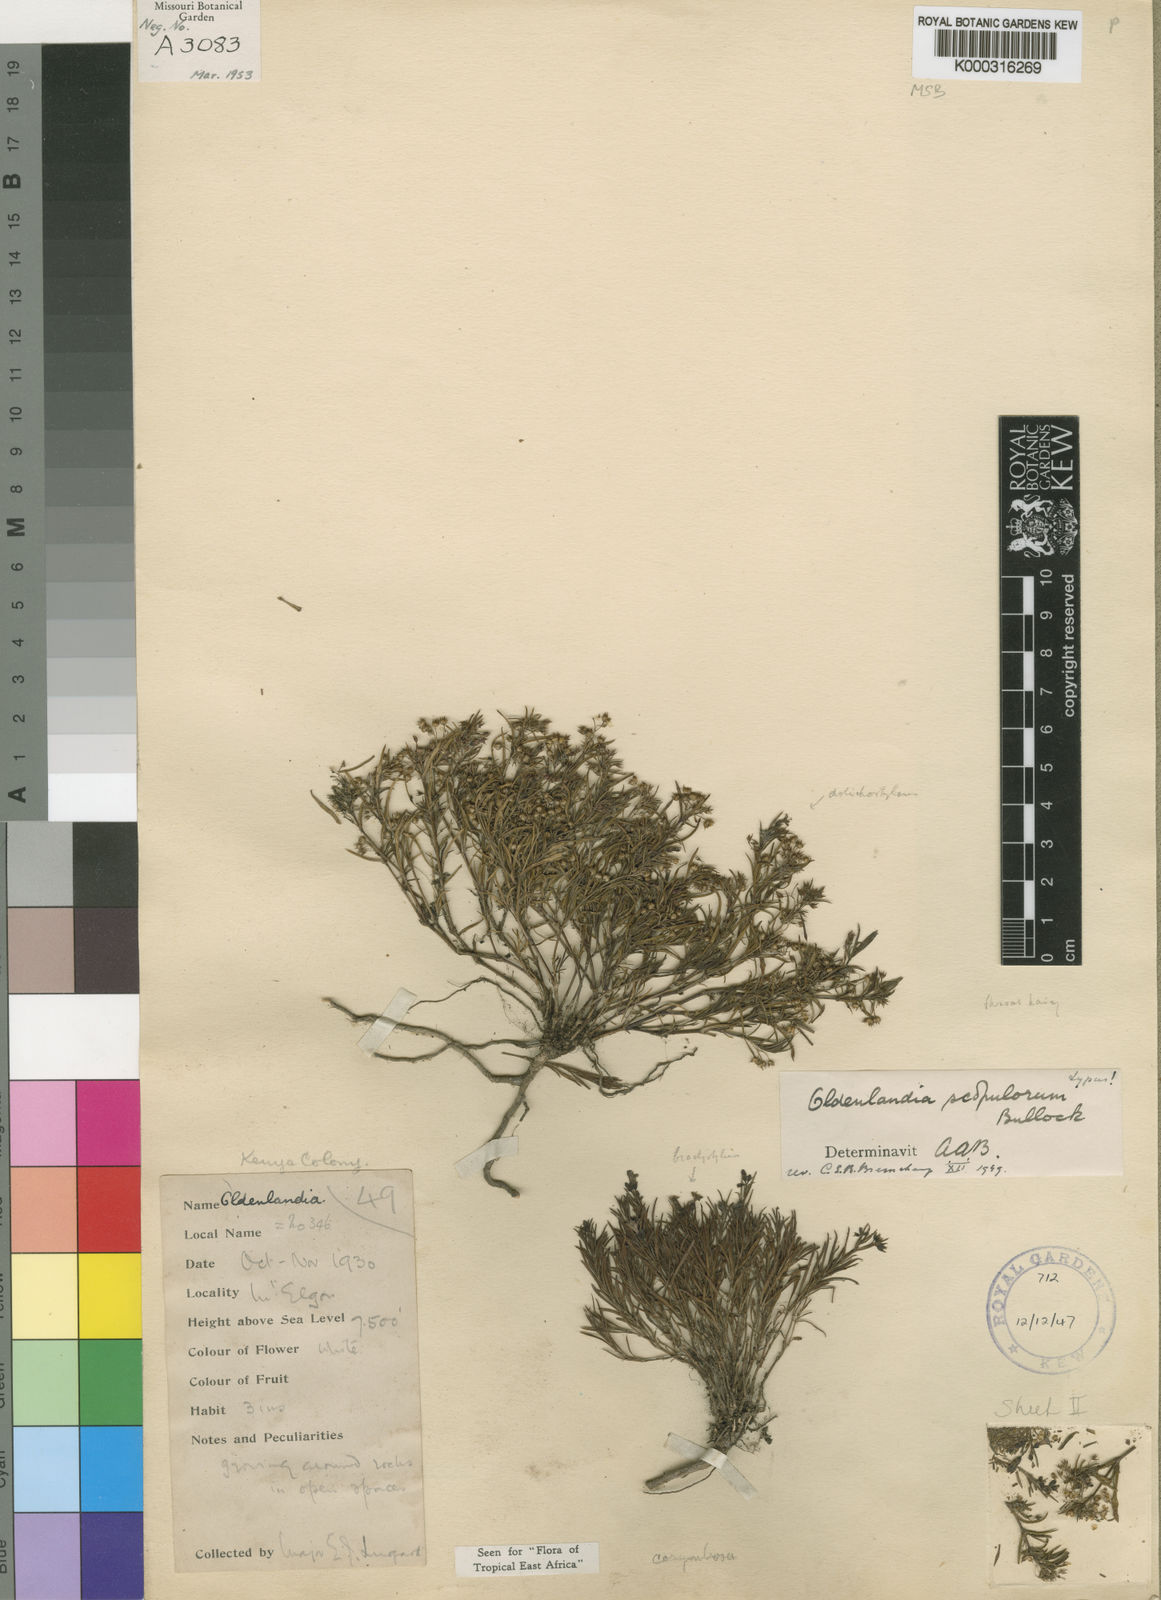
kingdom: Plantae
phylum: Tracheophyta
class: Magnoliopsida
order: Gentianales
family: Rubiaceae
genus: Oldenlandia
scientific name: Oldenlandia scopulorum
